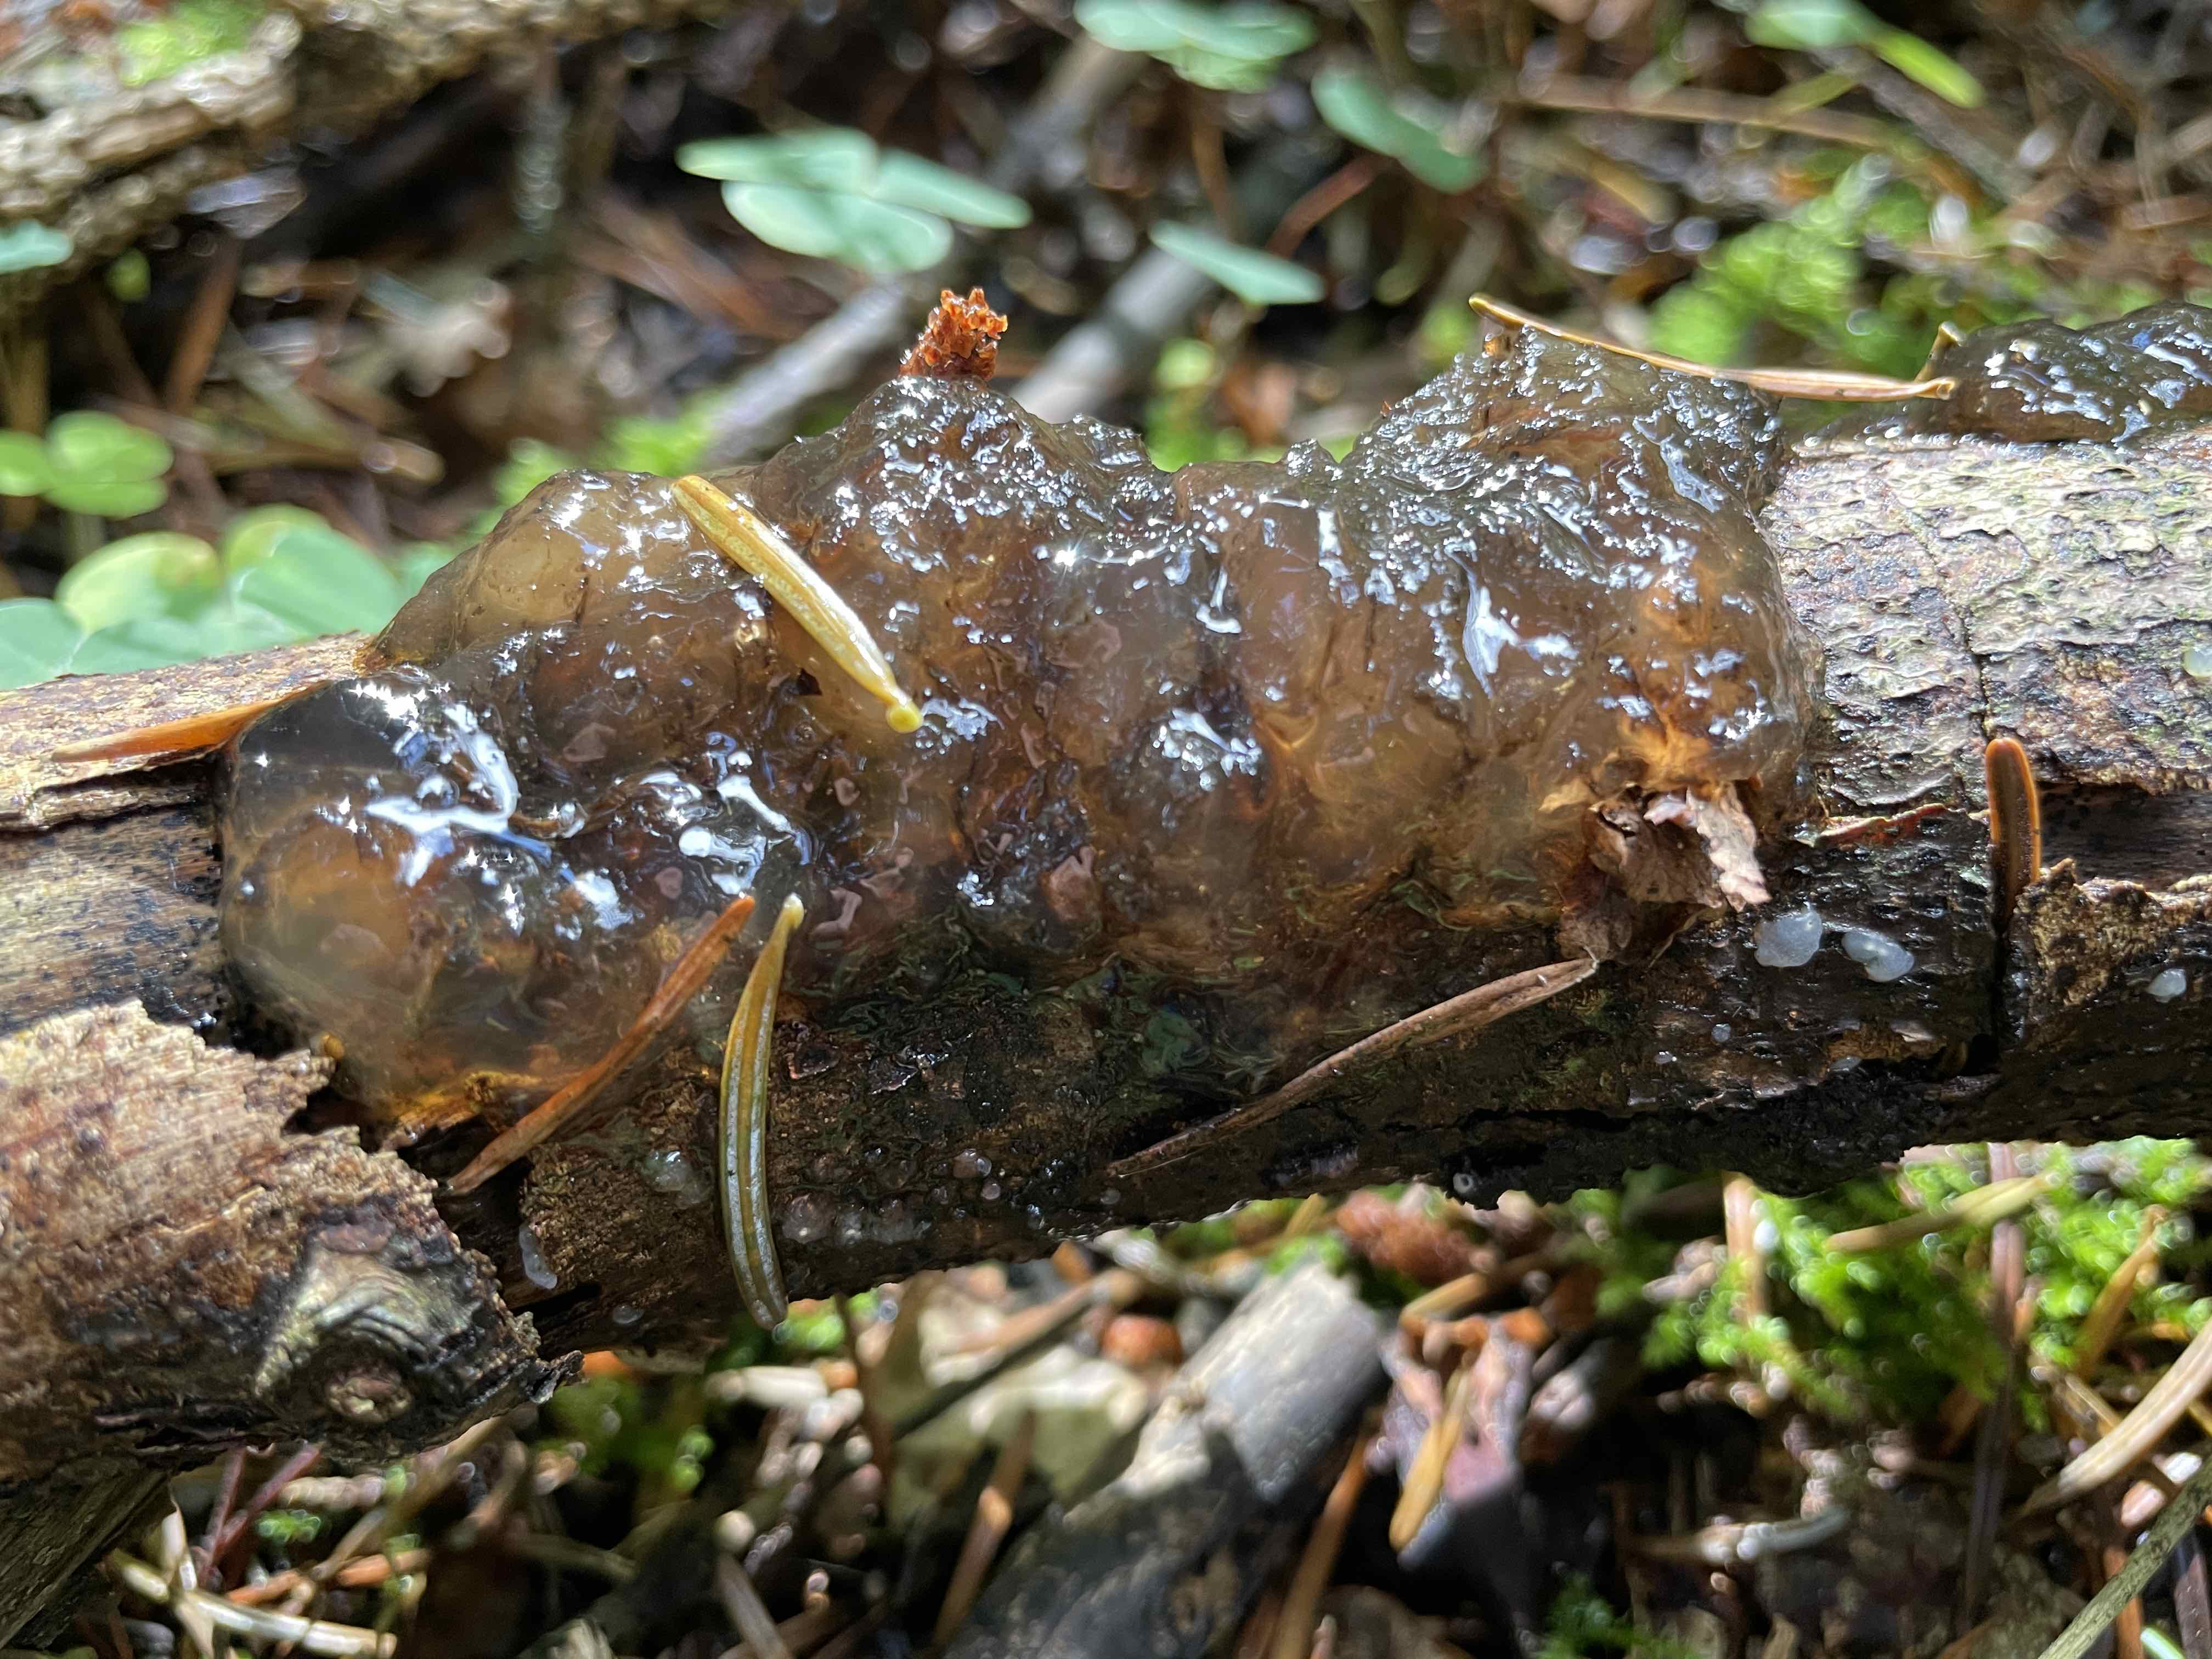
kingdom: Fungi
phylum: Basidiomycota
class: Tremellomycetes
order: Tremellales
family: Exidiaceae
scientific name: Exidiaceae
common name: bævretopfamilien
